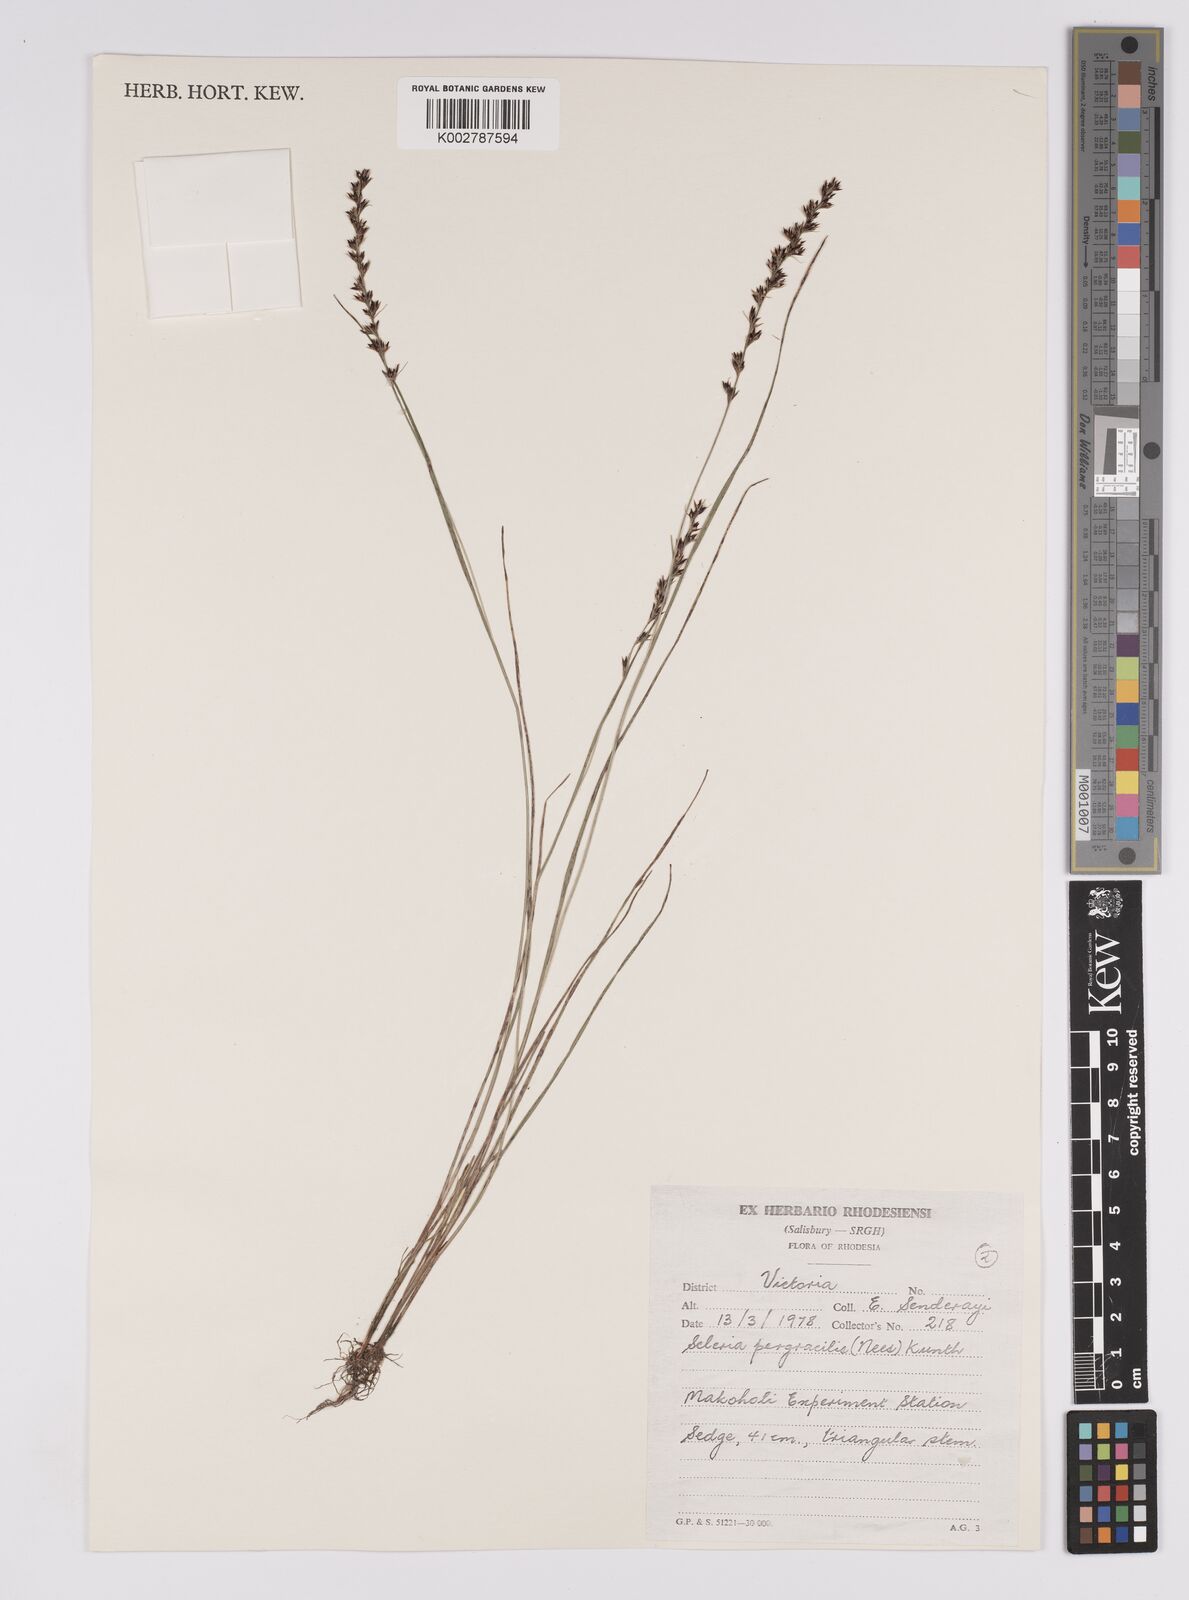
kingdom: Plantae
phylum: Tracheophyta
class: Liliopsida
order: Poales
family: Cyperaceae
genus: Scleria
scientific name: Scleria pergracilis
